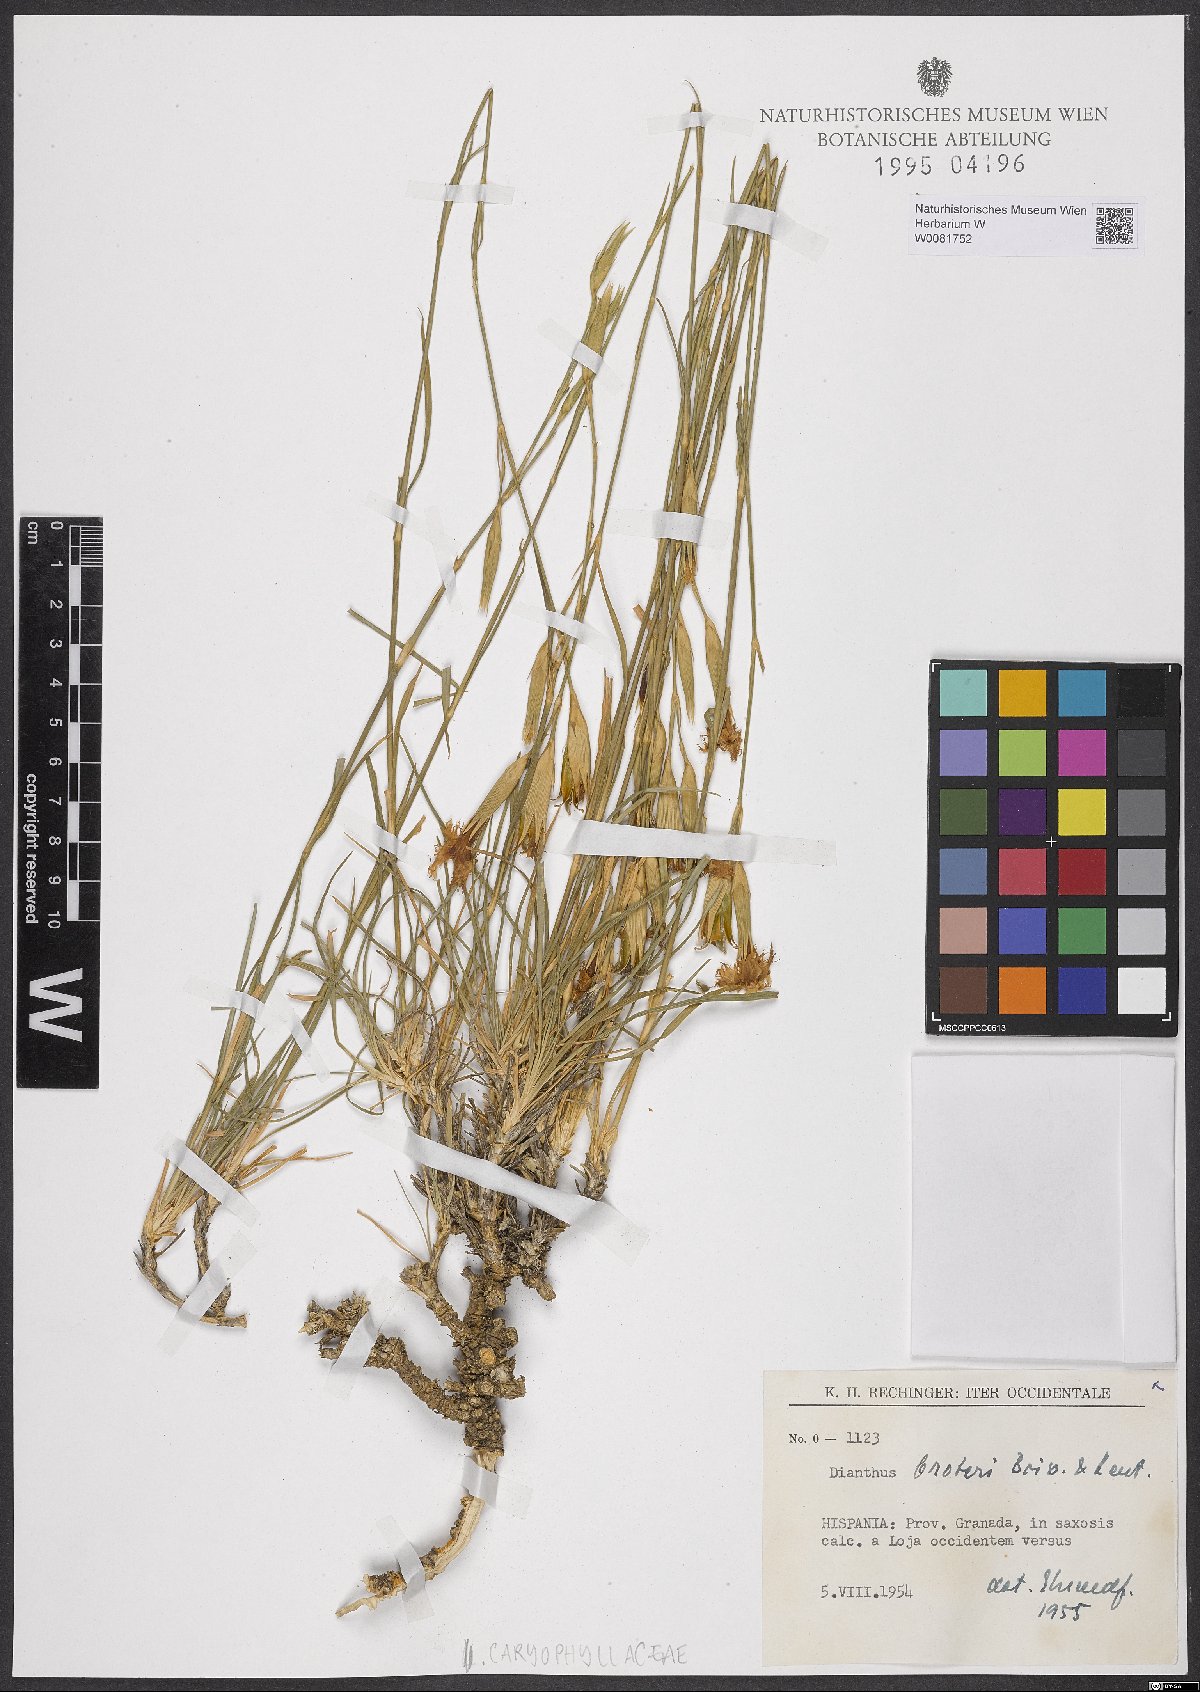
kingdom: Plantae
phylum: Tracheophyta
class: Magnoliopsida
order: Caryophyllales
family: Caryophyllaceae
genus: Dianthus
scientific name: Dianthus broteri
